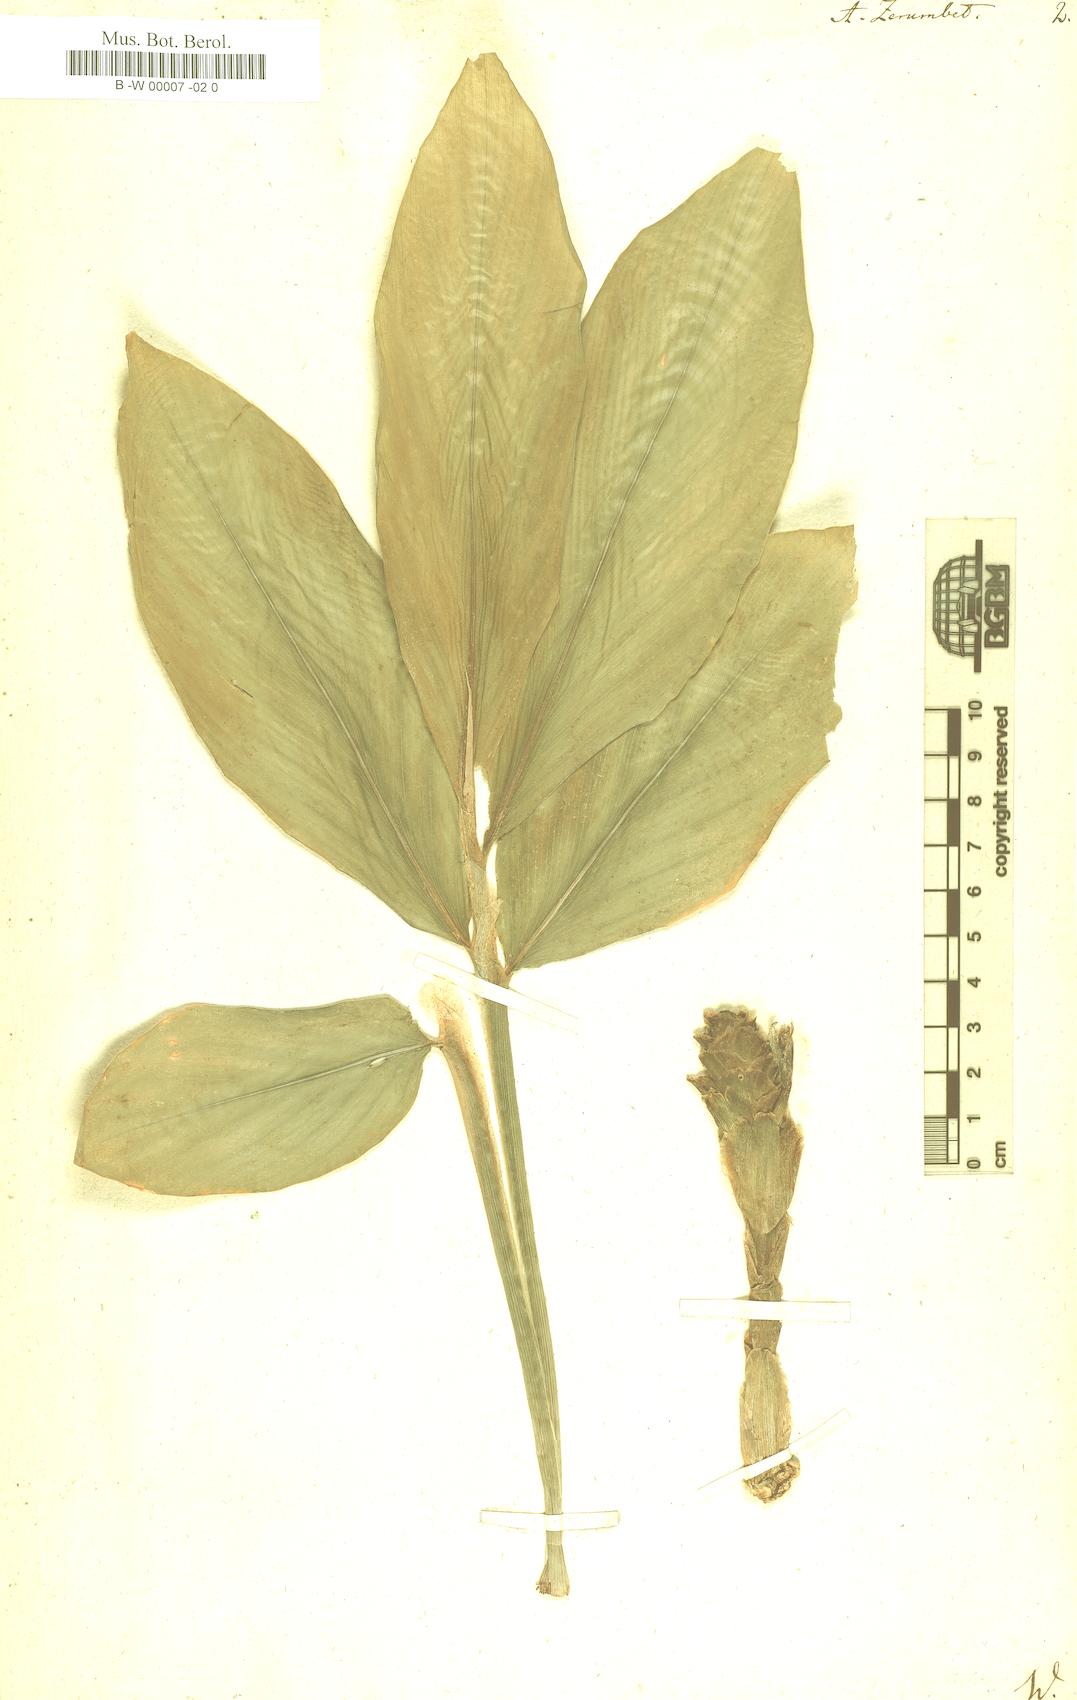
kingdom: Plantae
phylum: Tracheophyta
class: Liliopsida
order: Zingiberales
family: Zingiberaceae
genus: Zingiber
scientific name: Zingiber zerumbet
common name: Bitter ginger
